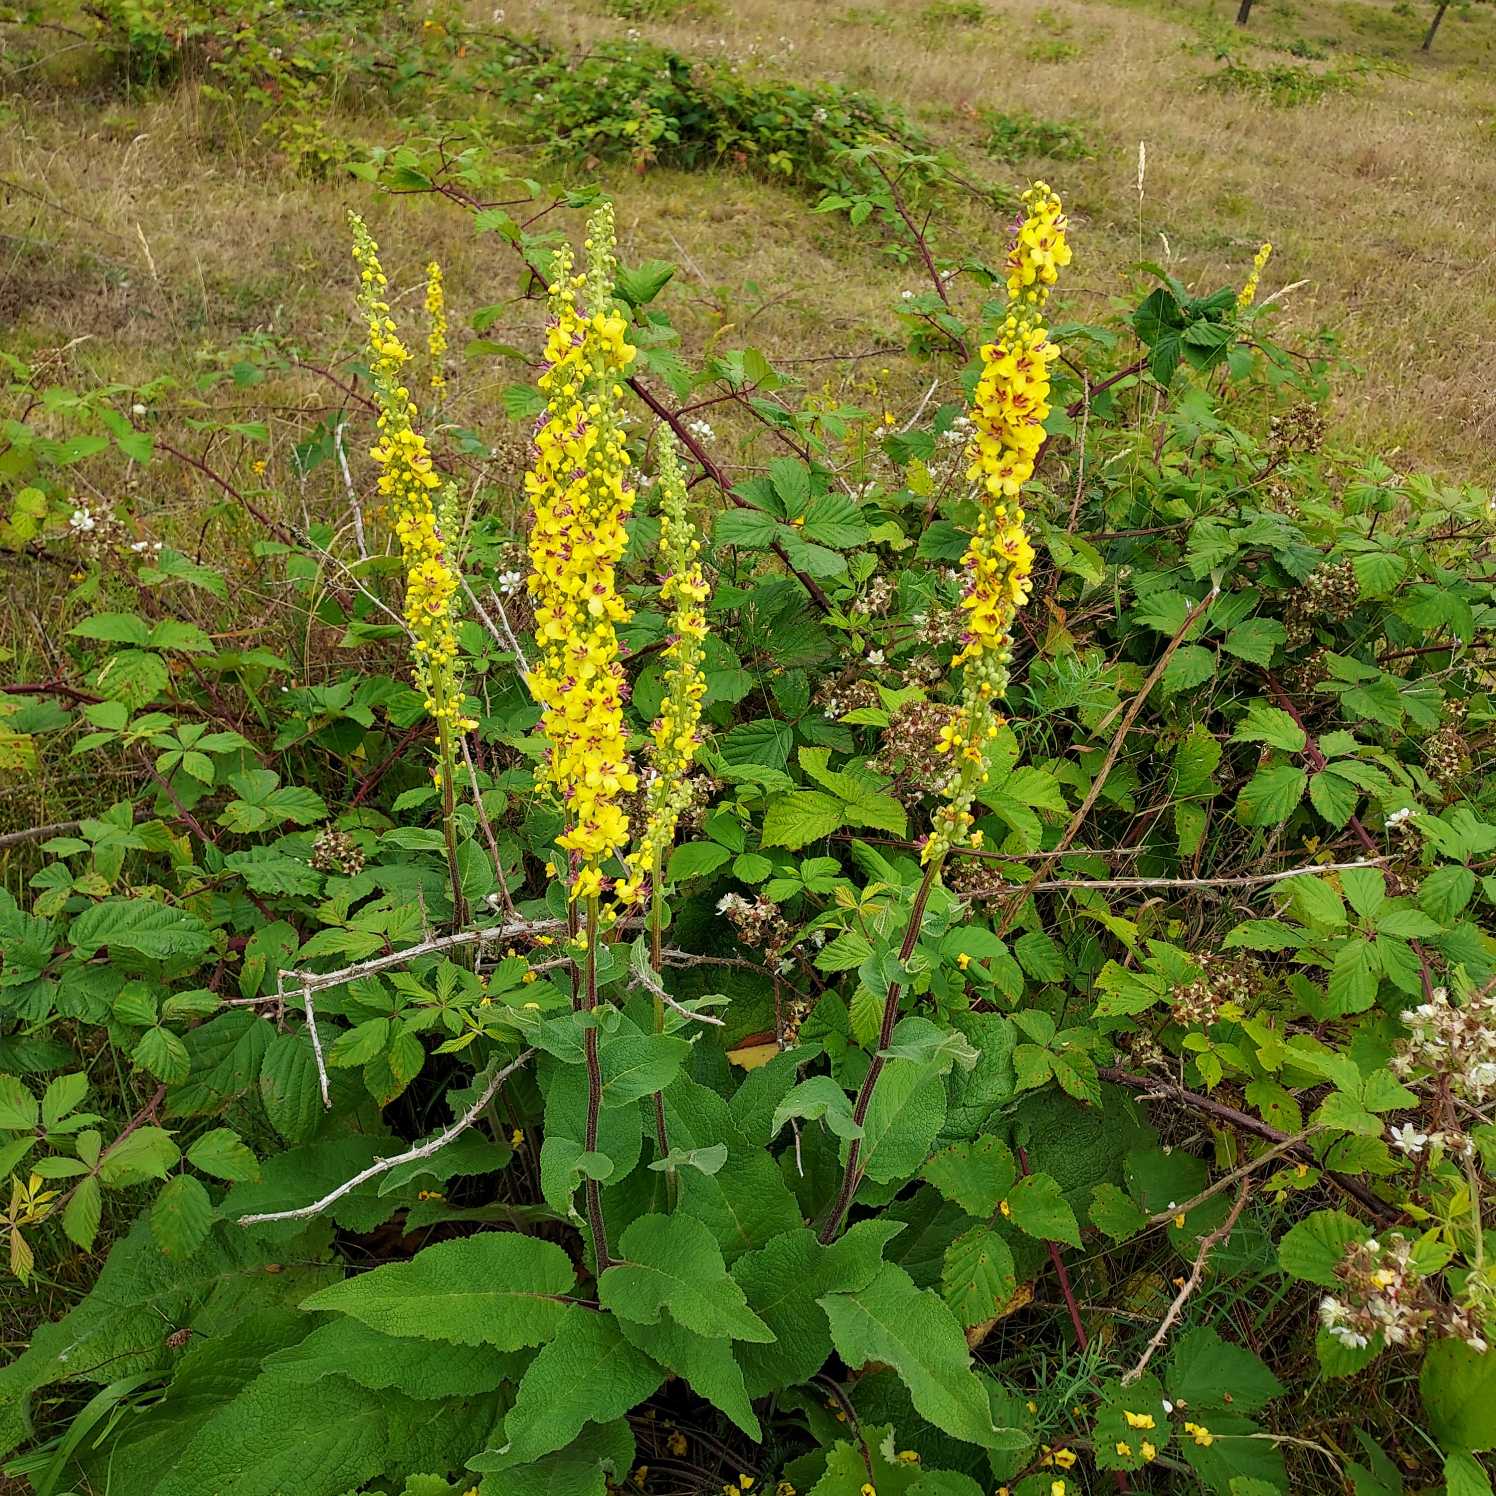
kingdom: Plantae
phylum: Tracheophyta
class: Magnoliopsida
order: Lamiales
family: Scrophulariaceae
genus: Verbascum
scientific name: Verbascum nigrum
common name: Mørk kongelys
